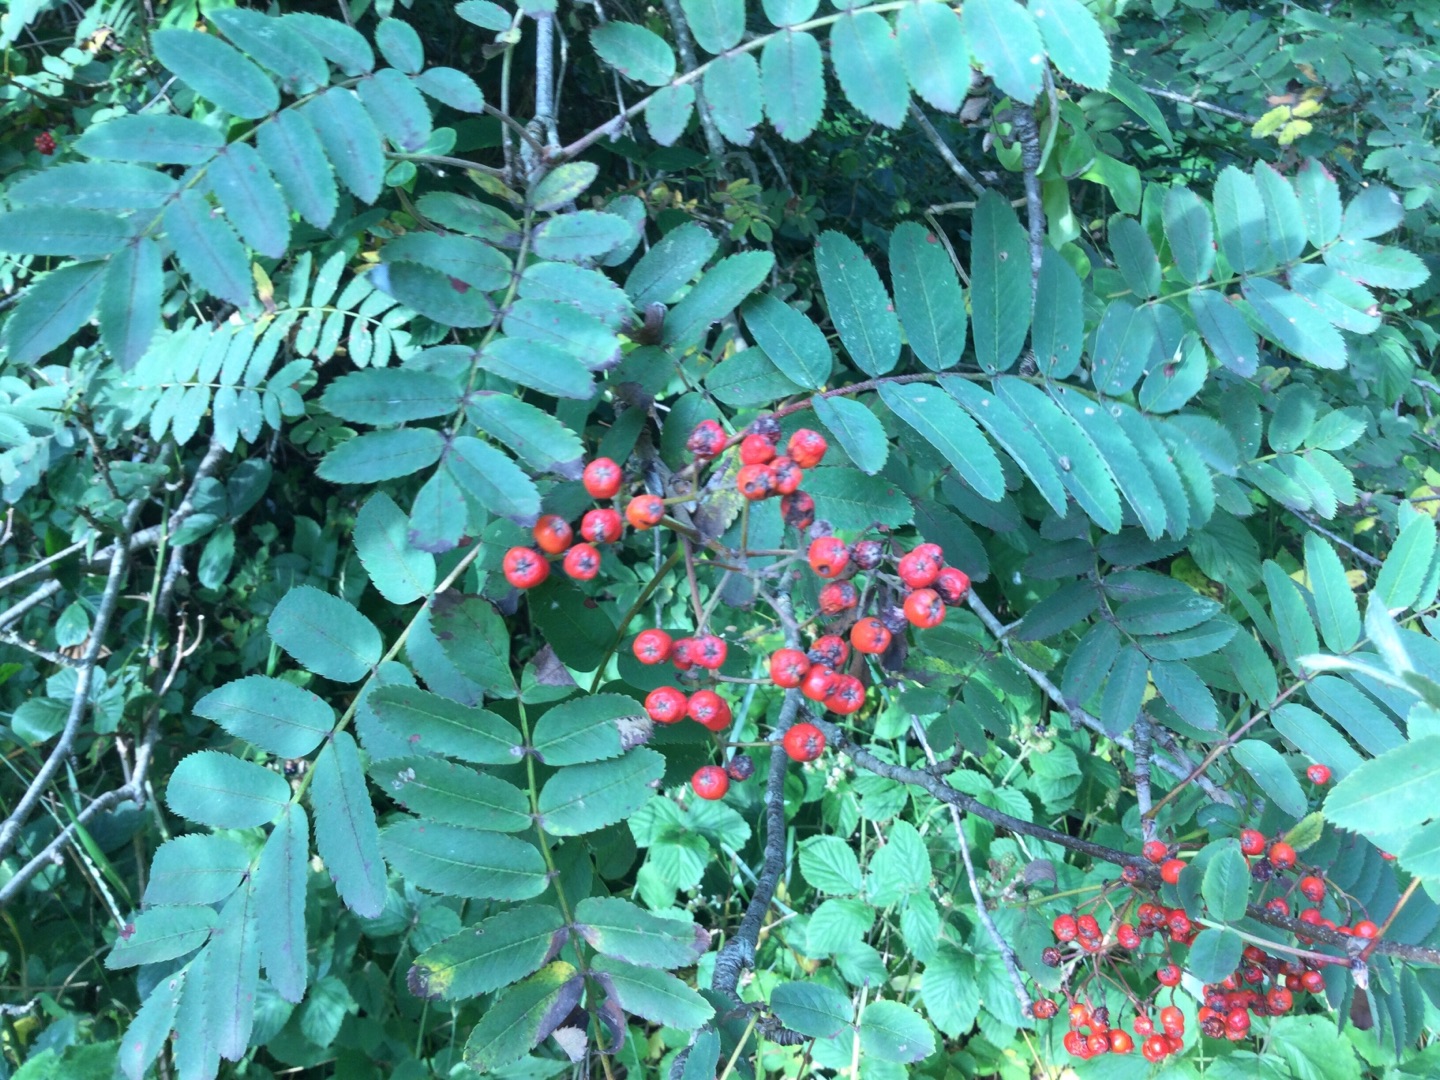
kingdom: Plantae
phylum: Tracheophyta
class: Magnoliopsida
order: Rosales
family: Rosaceae
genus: Sorbus
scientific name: Sorbus aucuparia
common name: Almindelig røn
